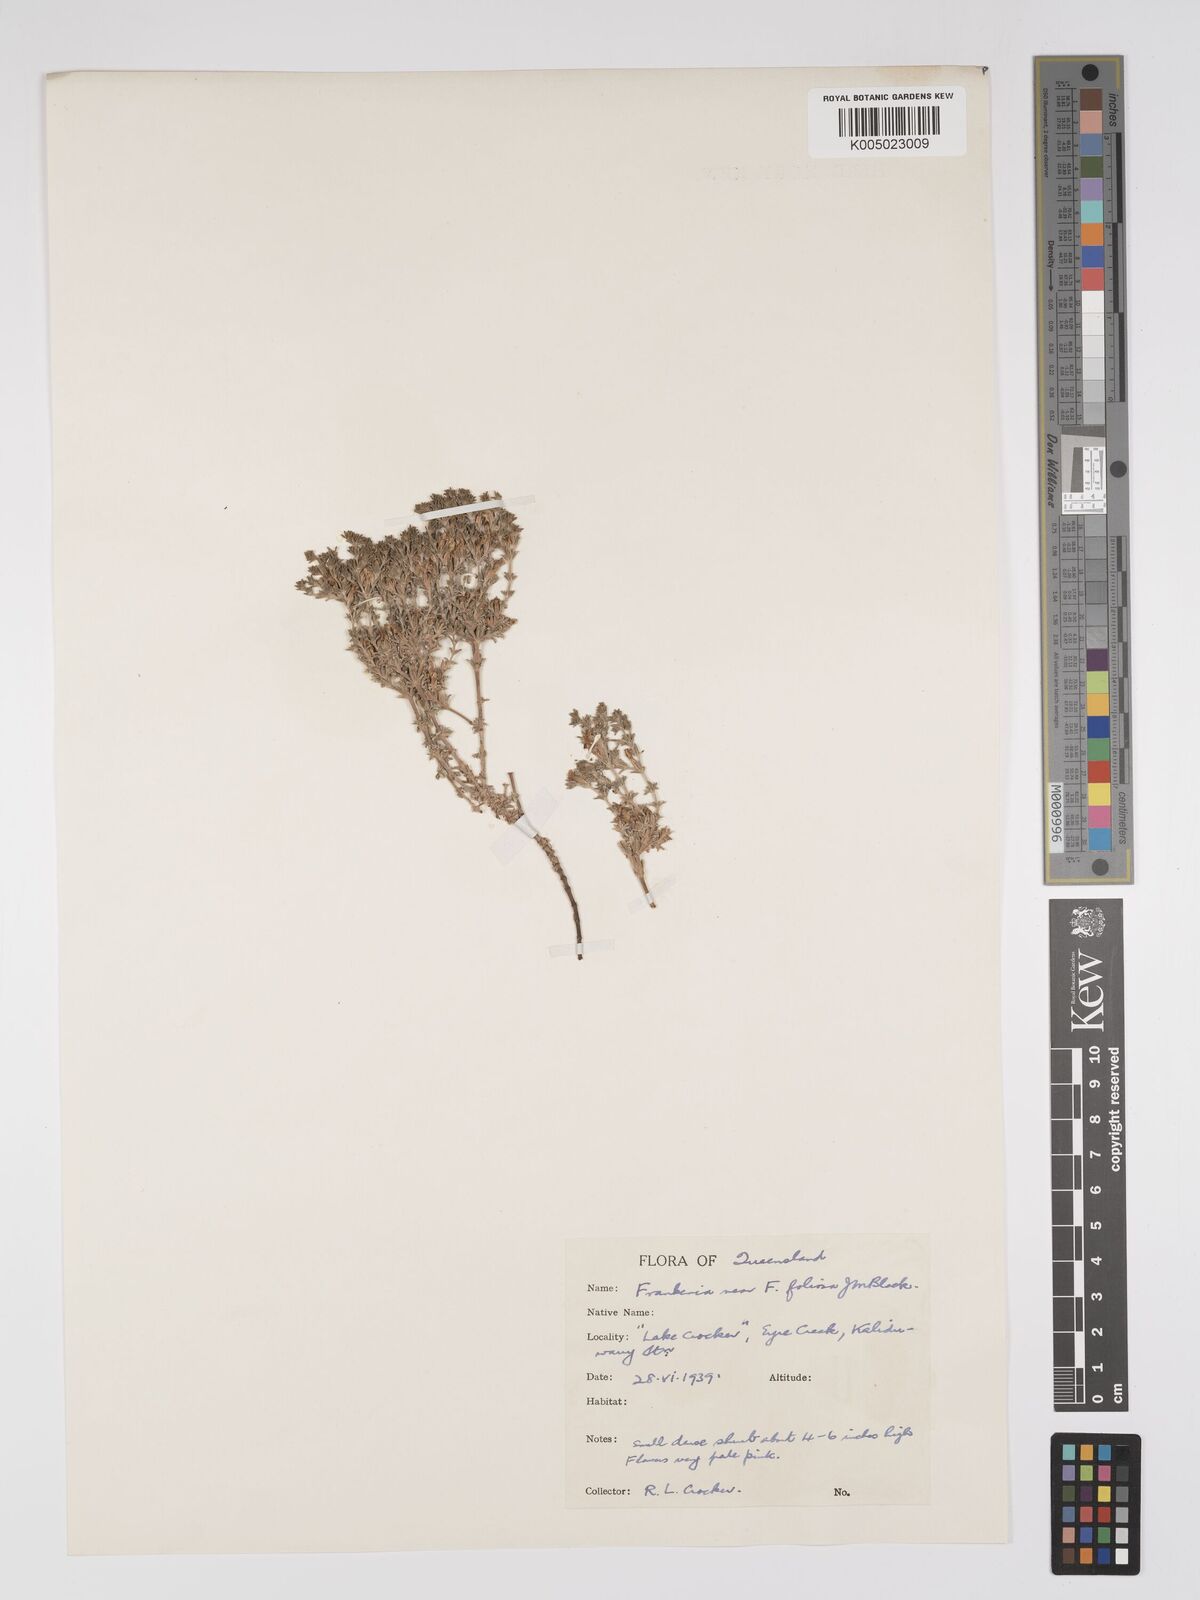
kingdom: Plantae
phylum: Tracheophyta
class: Magnoliopsida
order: Caryophyllales
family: Frankeniaceae
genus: Frankenia
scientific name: Frankenia foliosa
